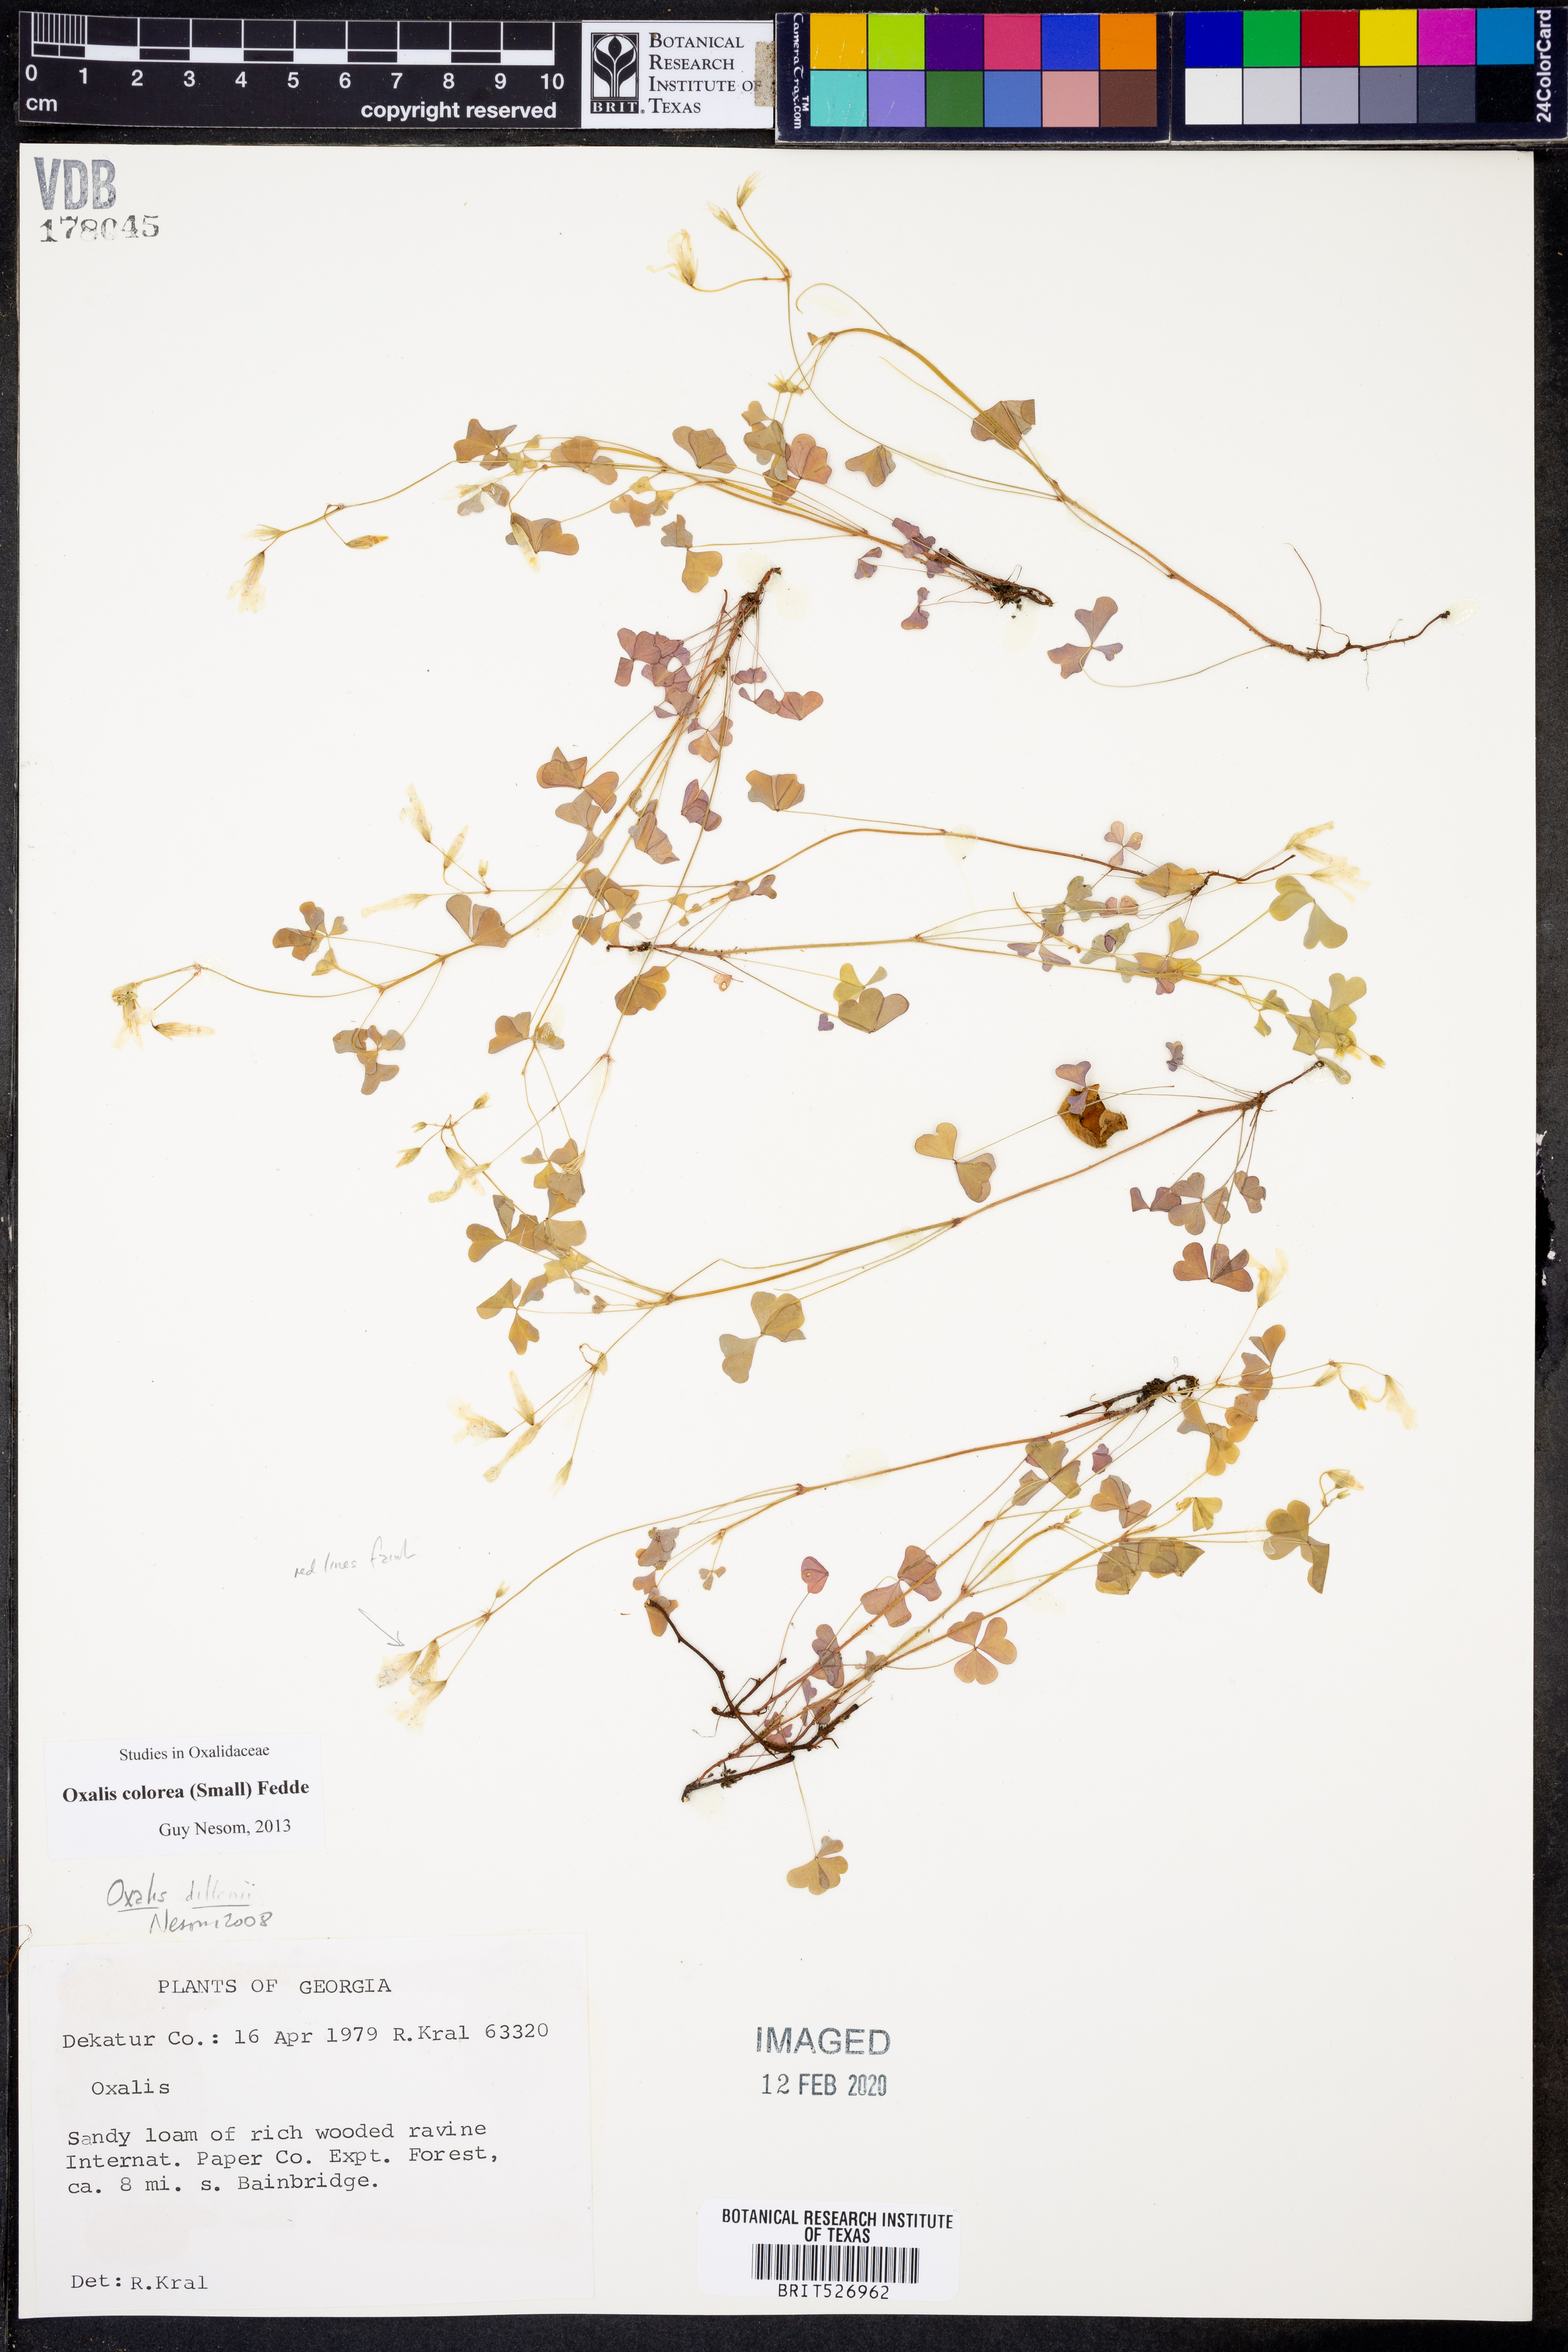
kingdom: Plantae
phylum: Tracheophyta
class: Magnoliopsida
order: Oxalidales
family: Oxalidaceae
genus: Oxalis
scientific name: Oxalis colorea
